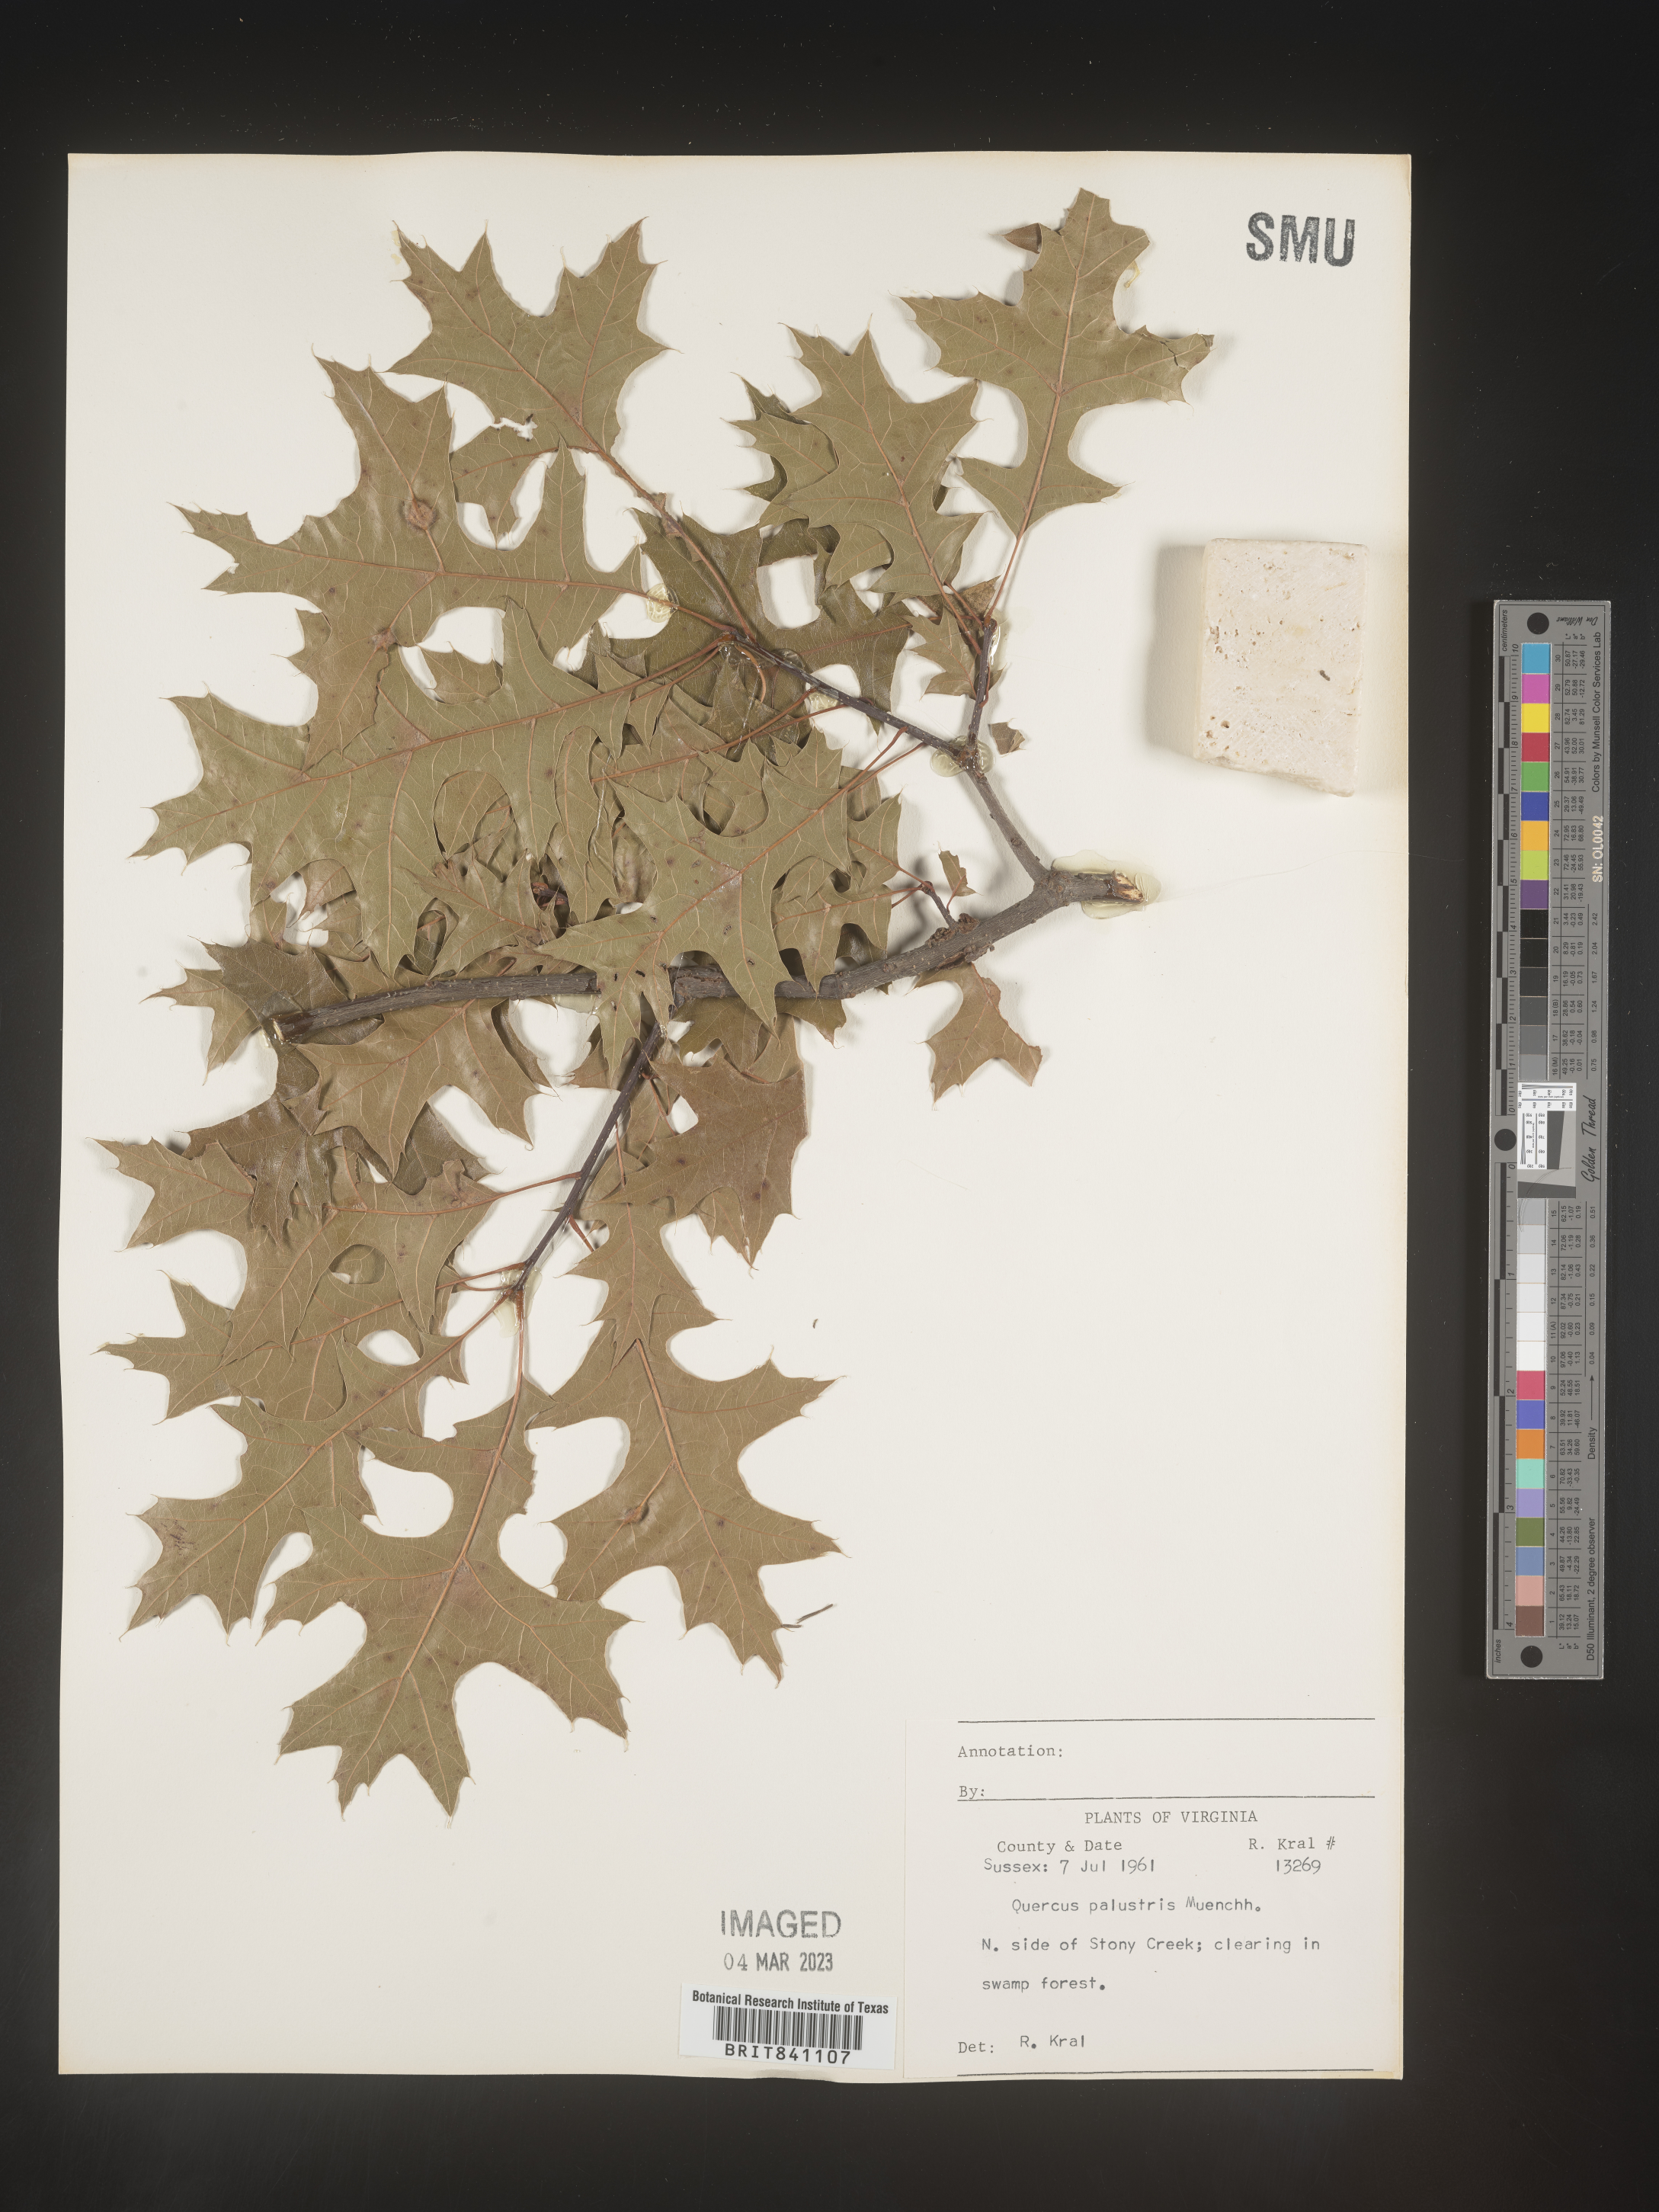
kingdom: Plantae
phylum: Tracheophyta
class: Magnoliopsida
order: Fagales
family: Fagaceae
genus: Quercus
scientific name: Quercus palustris
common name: Pin oak
